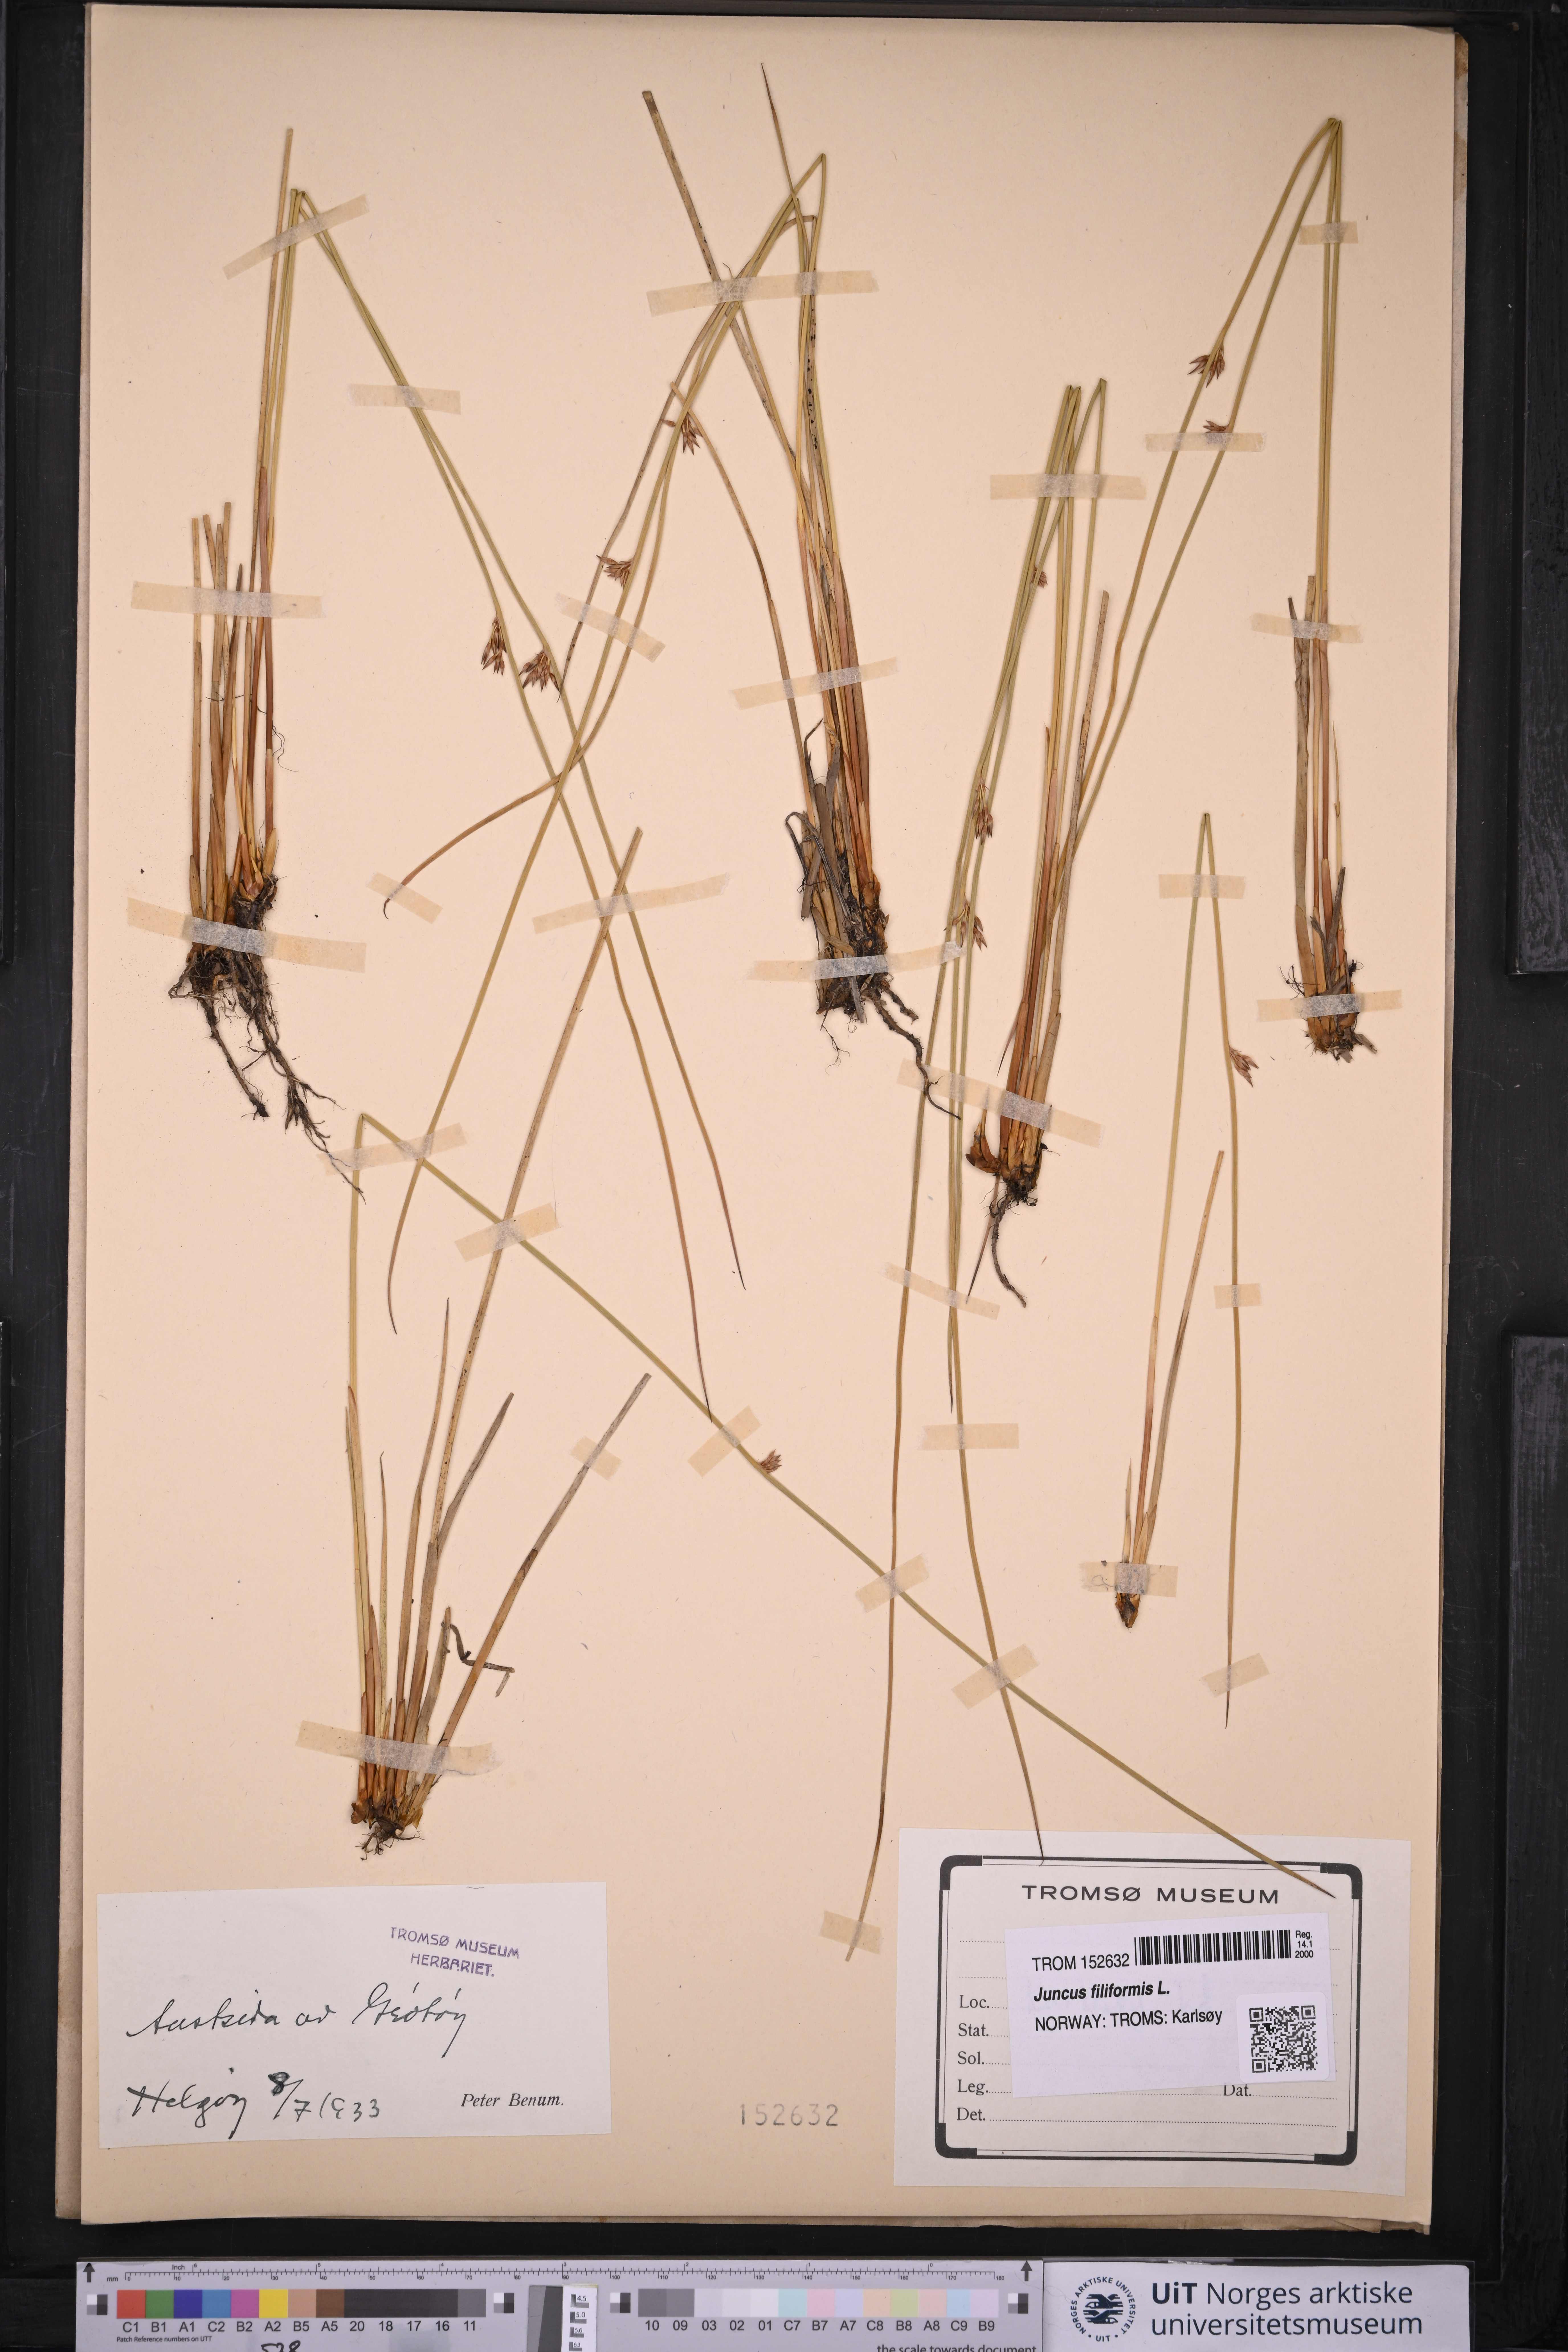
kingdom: Plantae
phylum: Tracheophyta
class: Liliopsida
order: Poales
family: Juncaceae
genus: Juncus
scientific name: Juncus filiformis
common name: Thread rush
